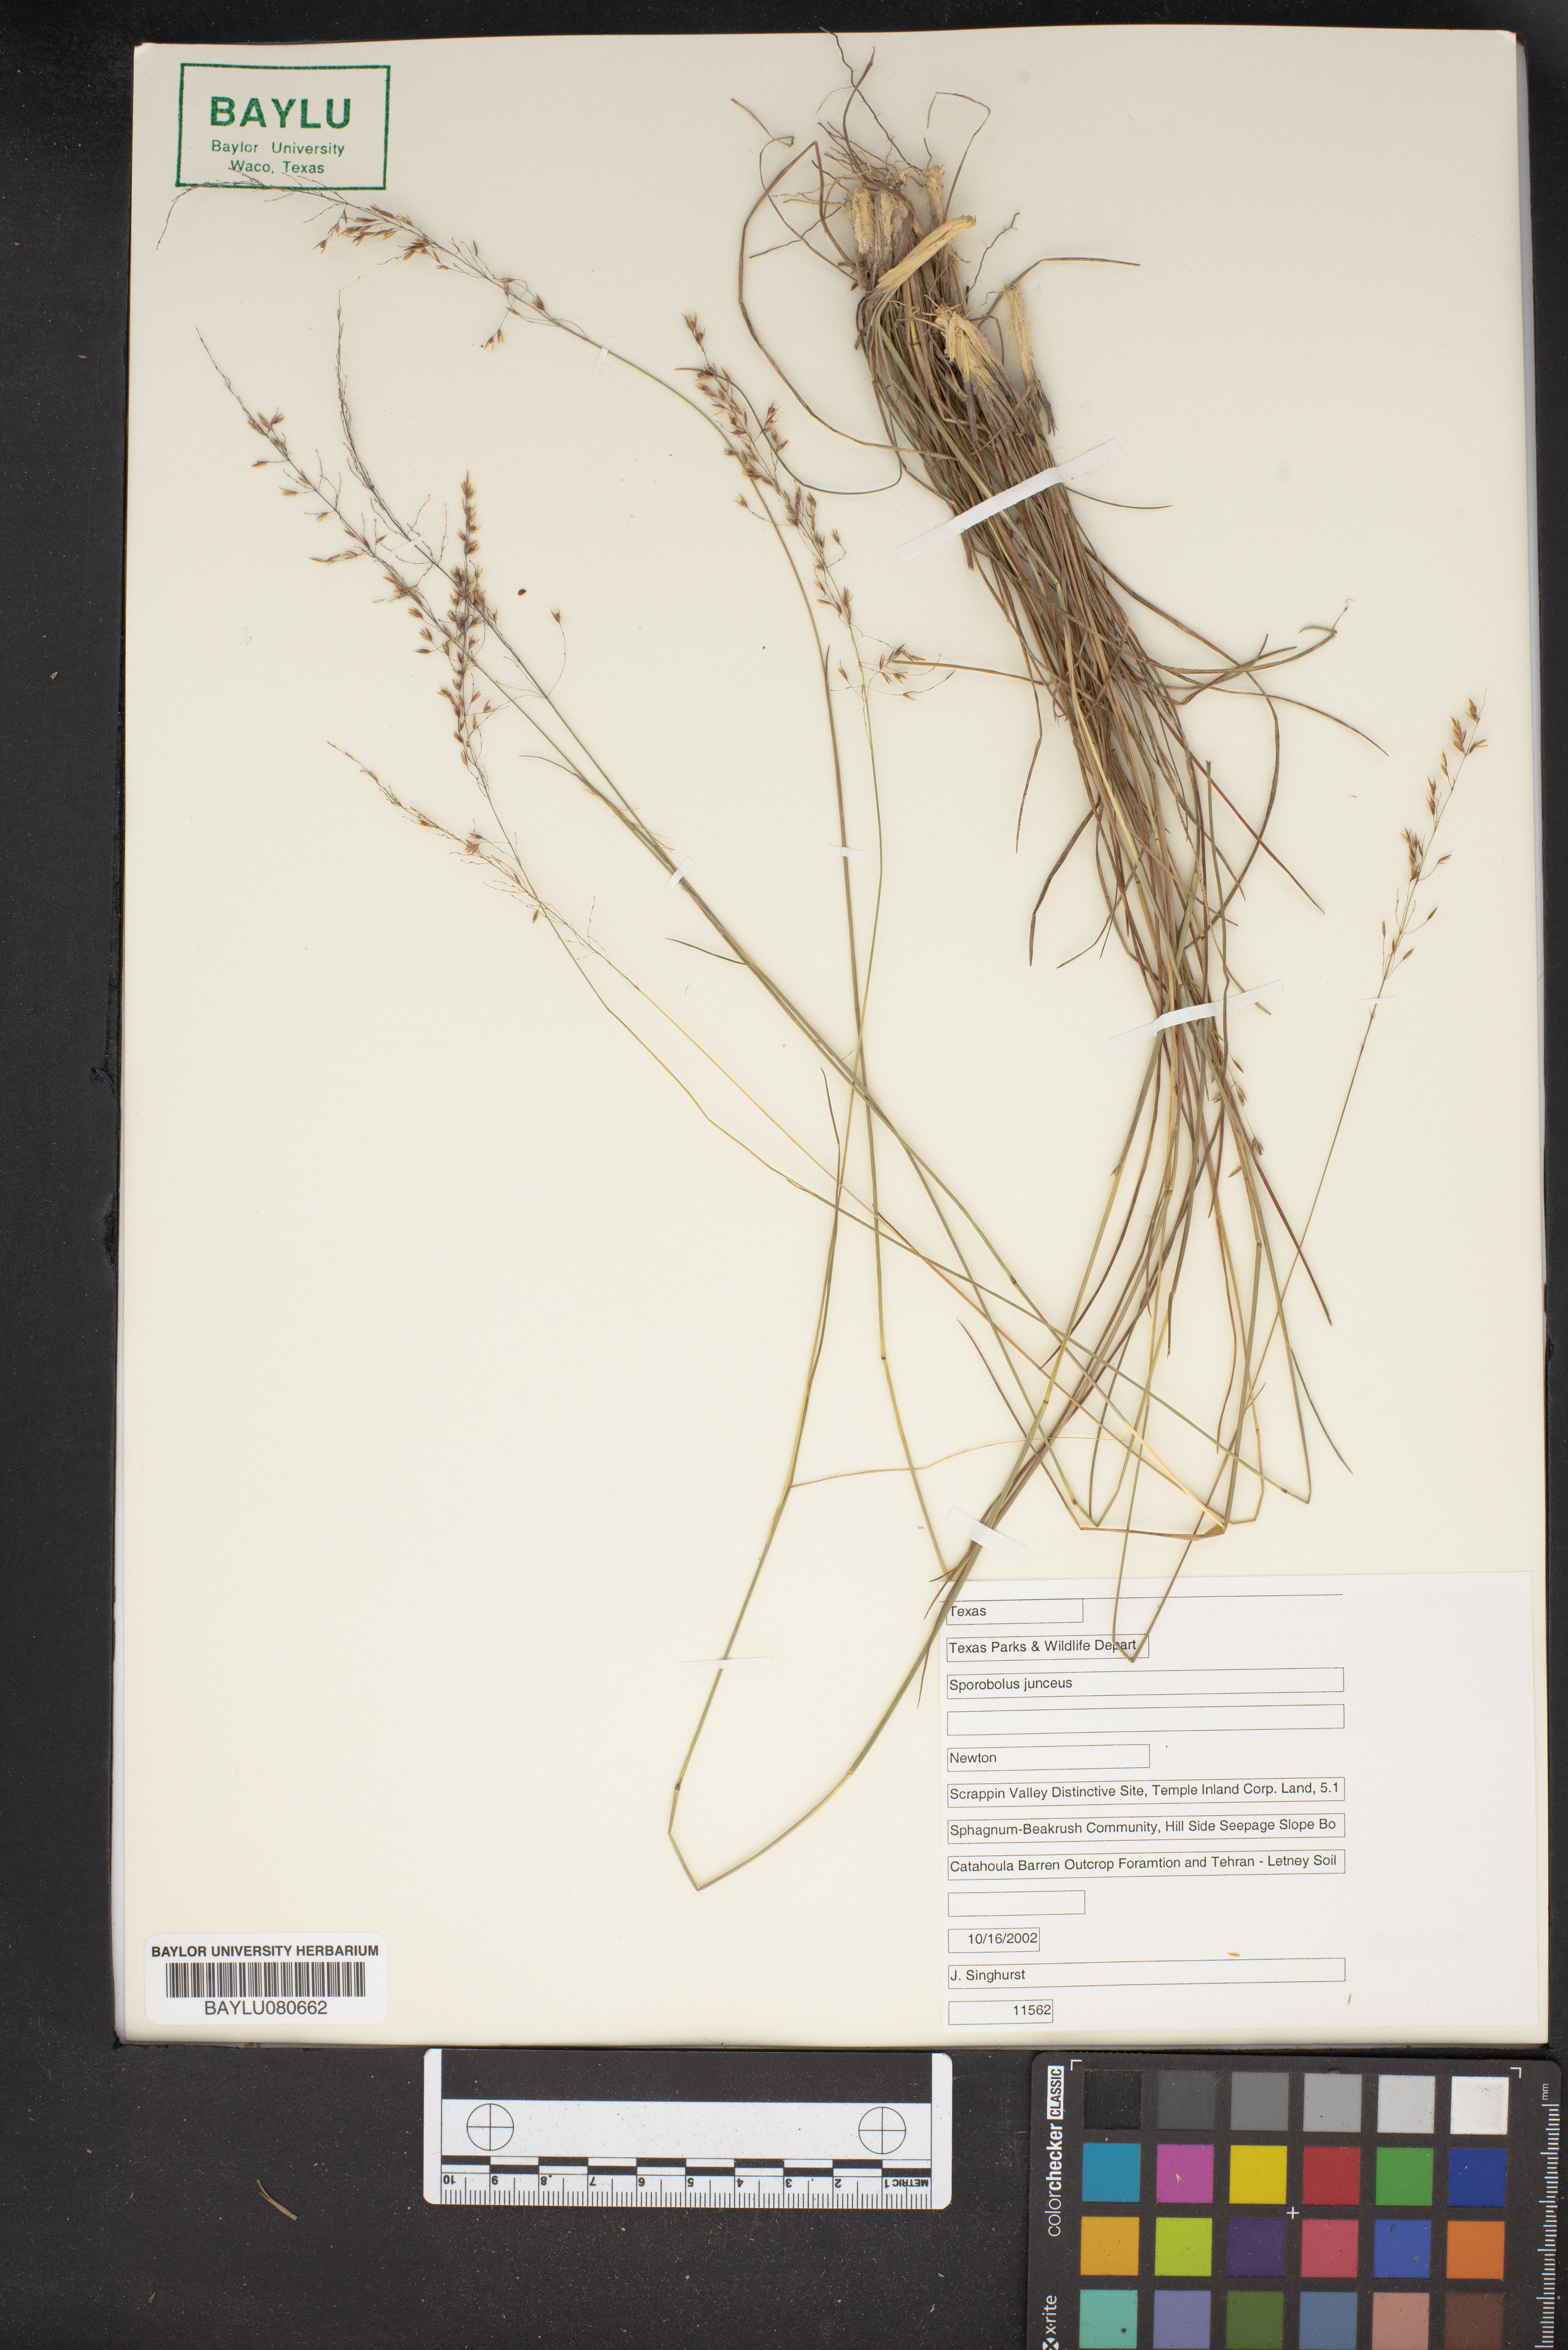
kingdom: Plantae
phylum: Tracheophyta
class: Liliopsida
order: Poales
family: Poaceae
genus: Sporobolus
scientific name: Sporobolus junceus
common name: Lizard grass
